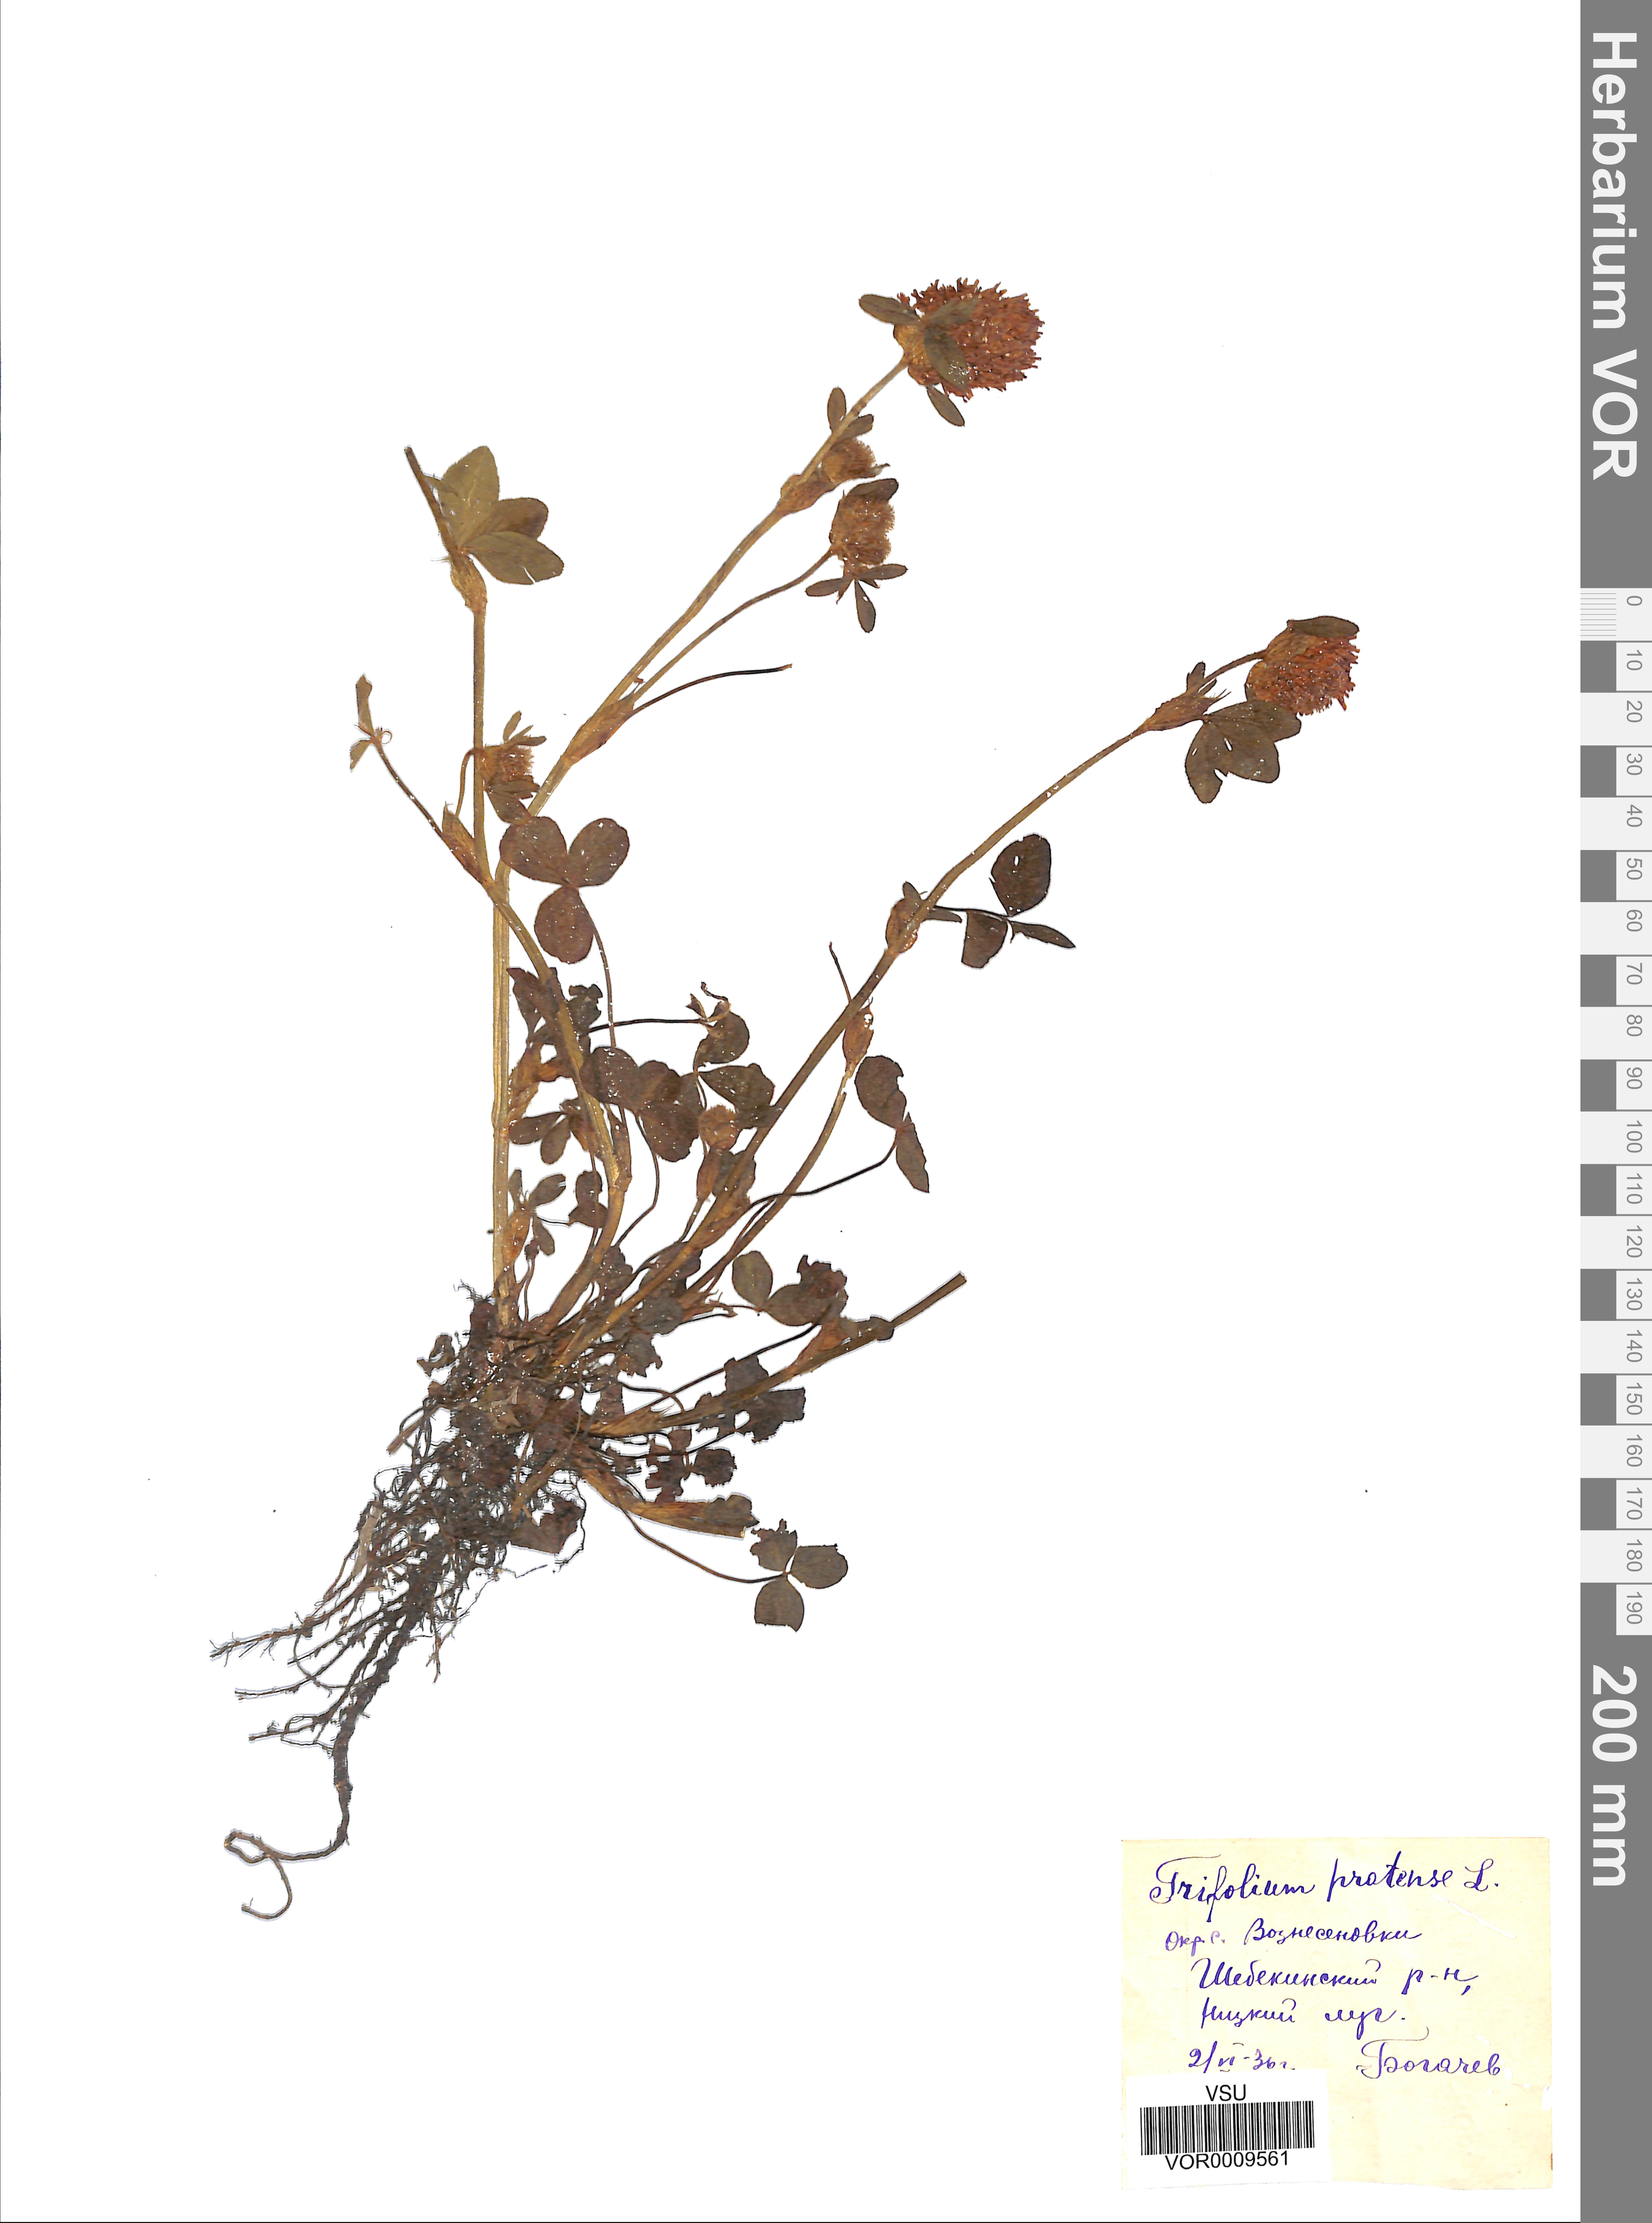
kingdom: Plantae
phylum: Tracheophyta
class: Magnoliopsida
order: Fabales
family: Fabaceae
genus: Trifolium
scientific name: Trifolium pratense
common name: Red clover
